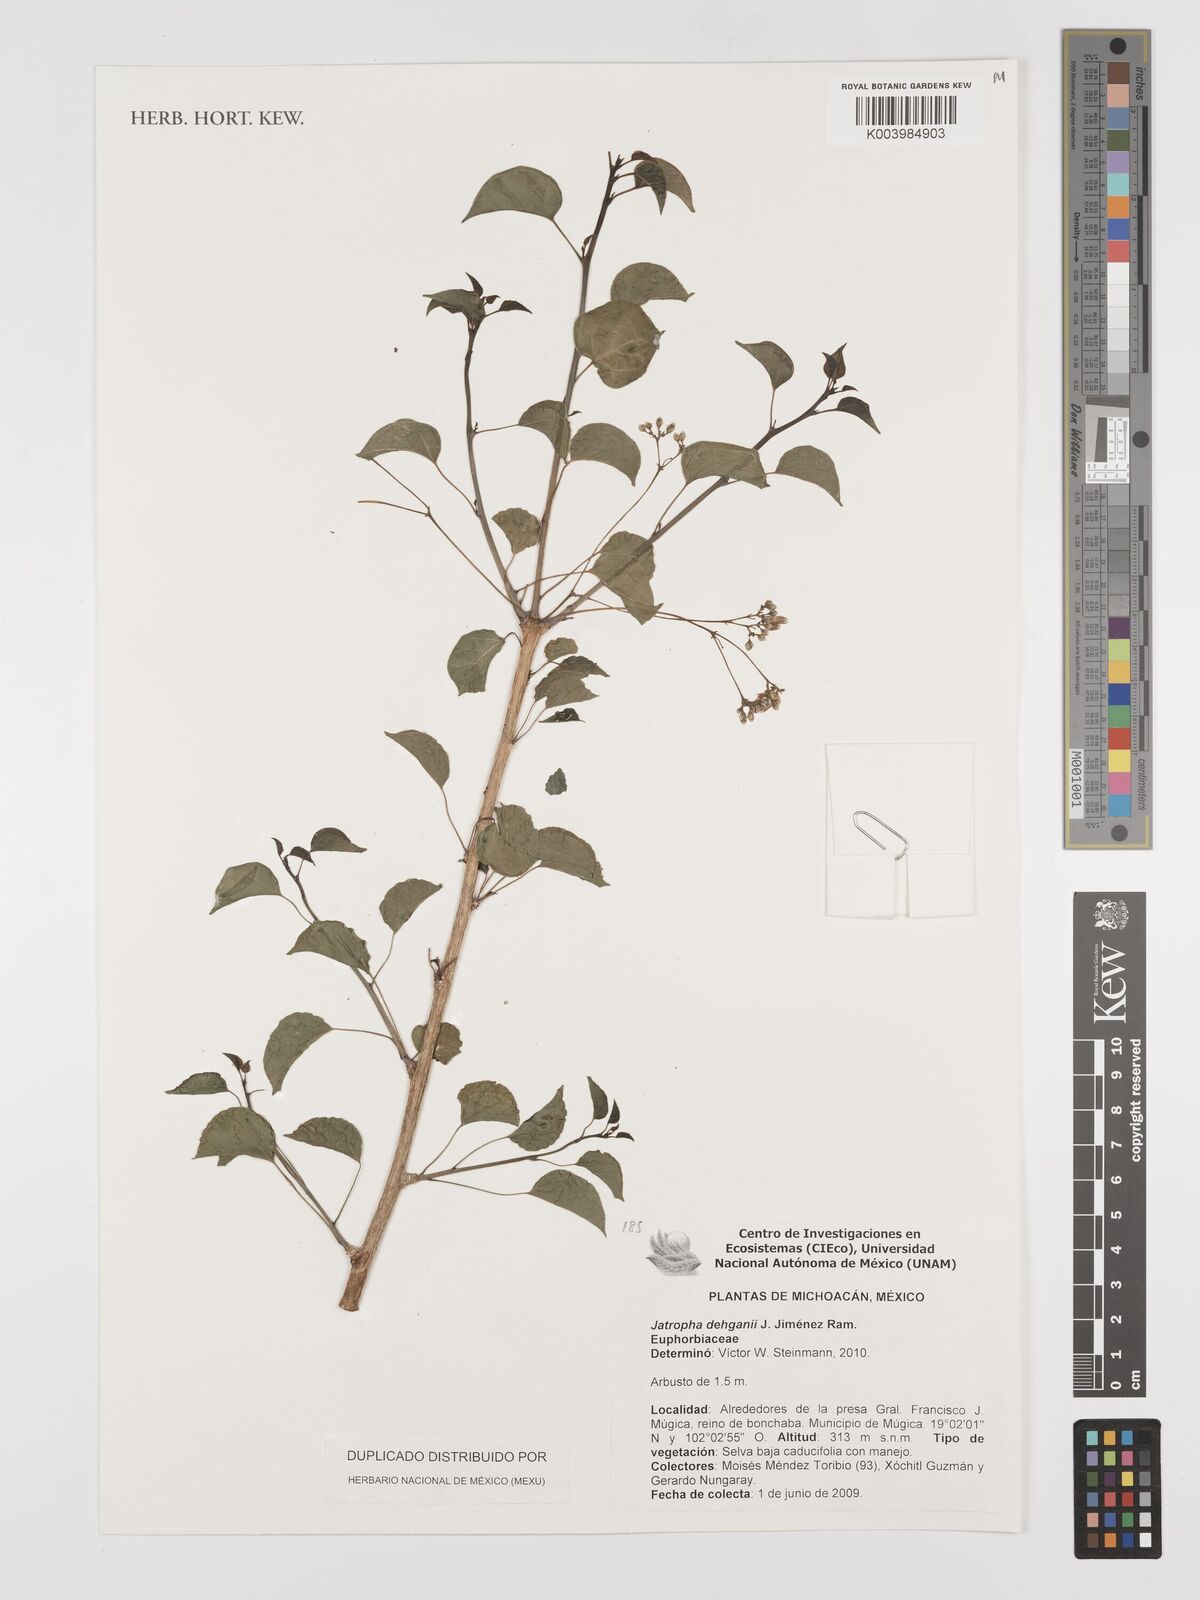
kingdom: Plantae
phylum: Tracheophyta
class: Magnoliopsida
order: Malpighiales
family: Euphorbiaceae
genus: Jatropha
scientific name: Jatropha dehganii
